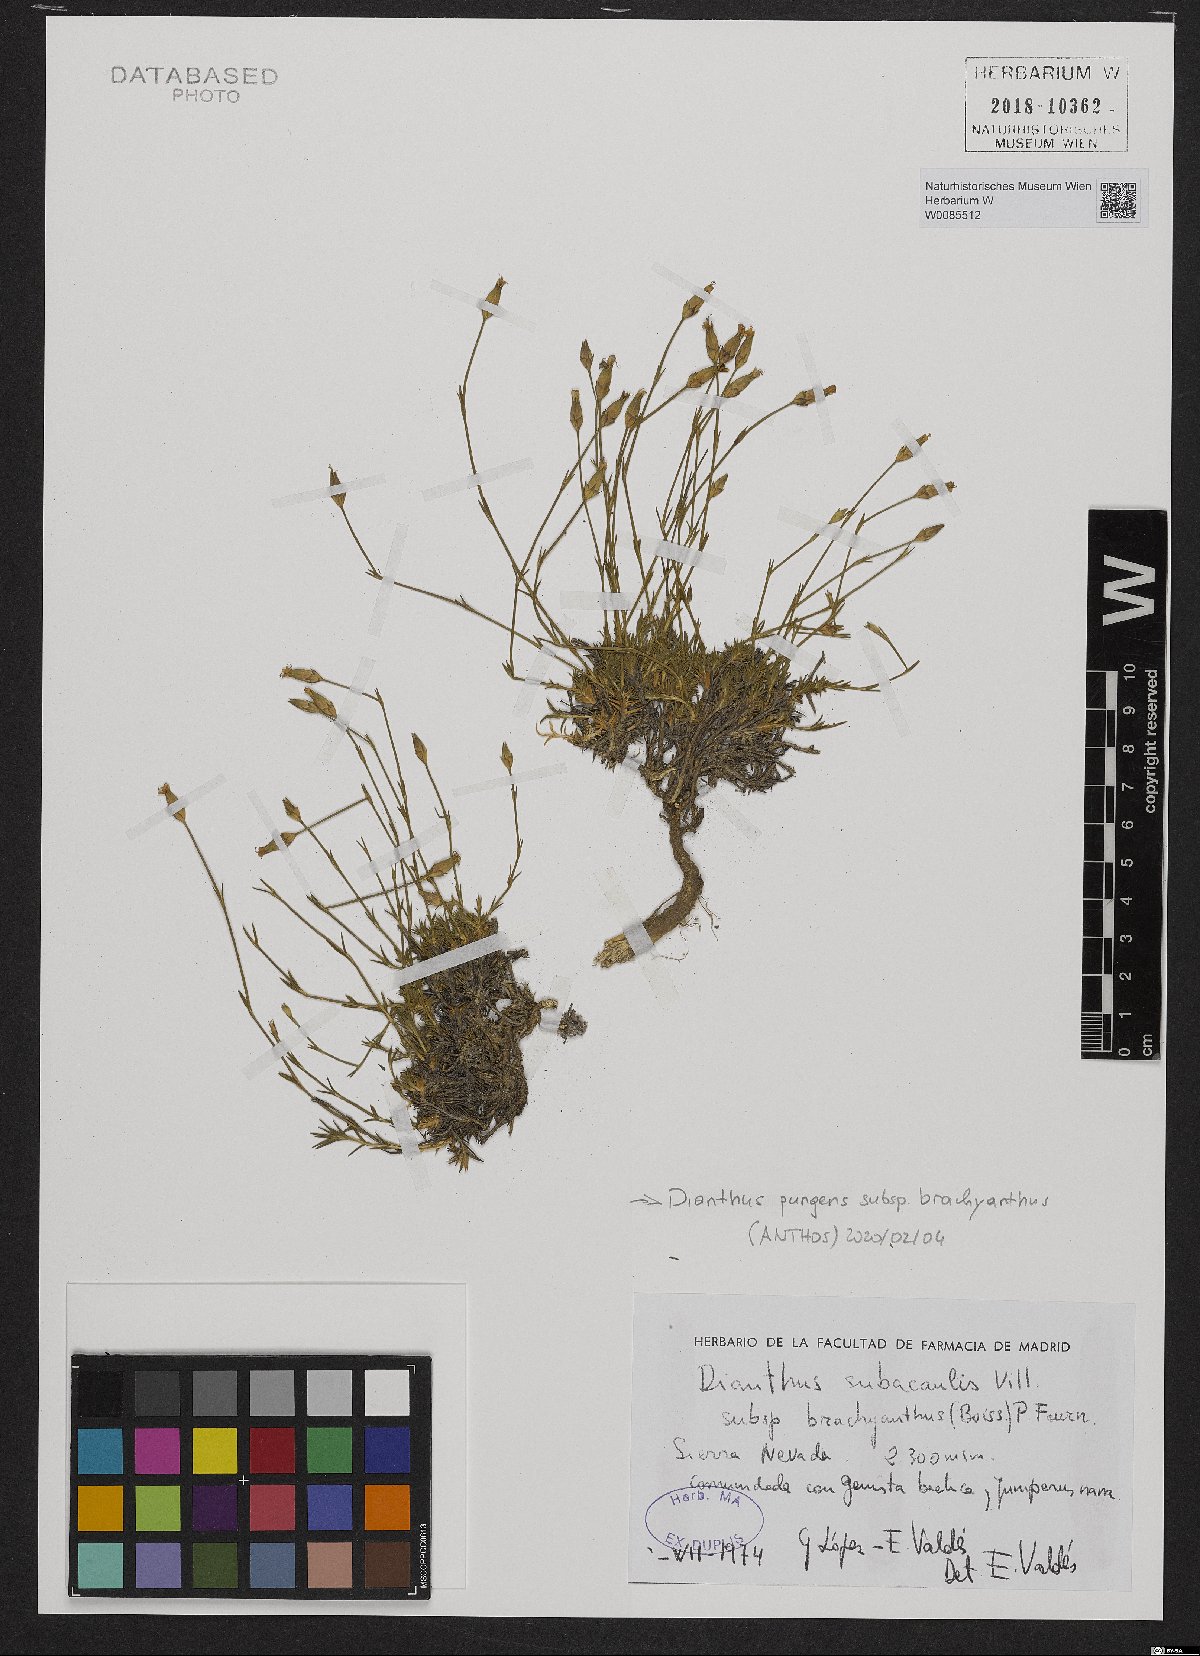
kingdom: Plantae
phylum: Tracheophyta
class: Magnoliopsida
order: Caryophyllales
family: Caryophyllaceae
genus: Dianthus
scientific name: Dianthus pungens
